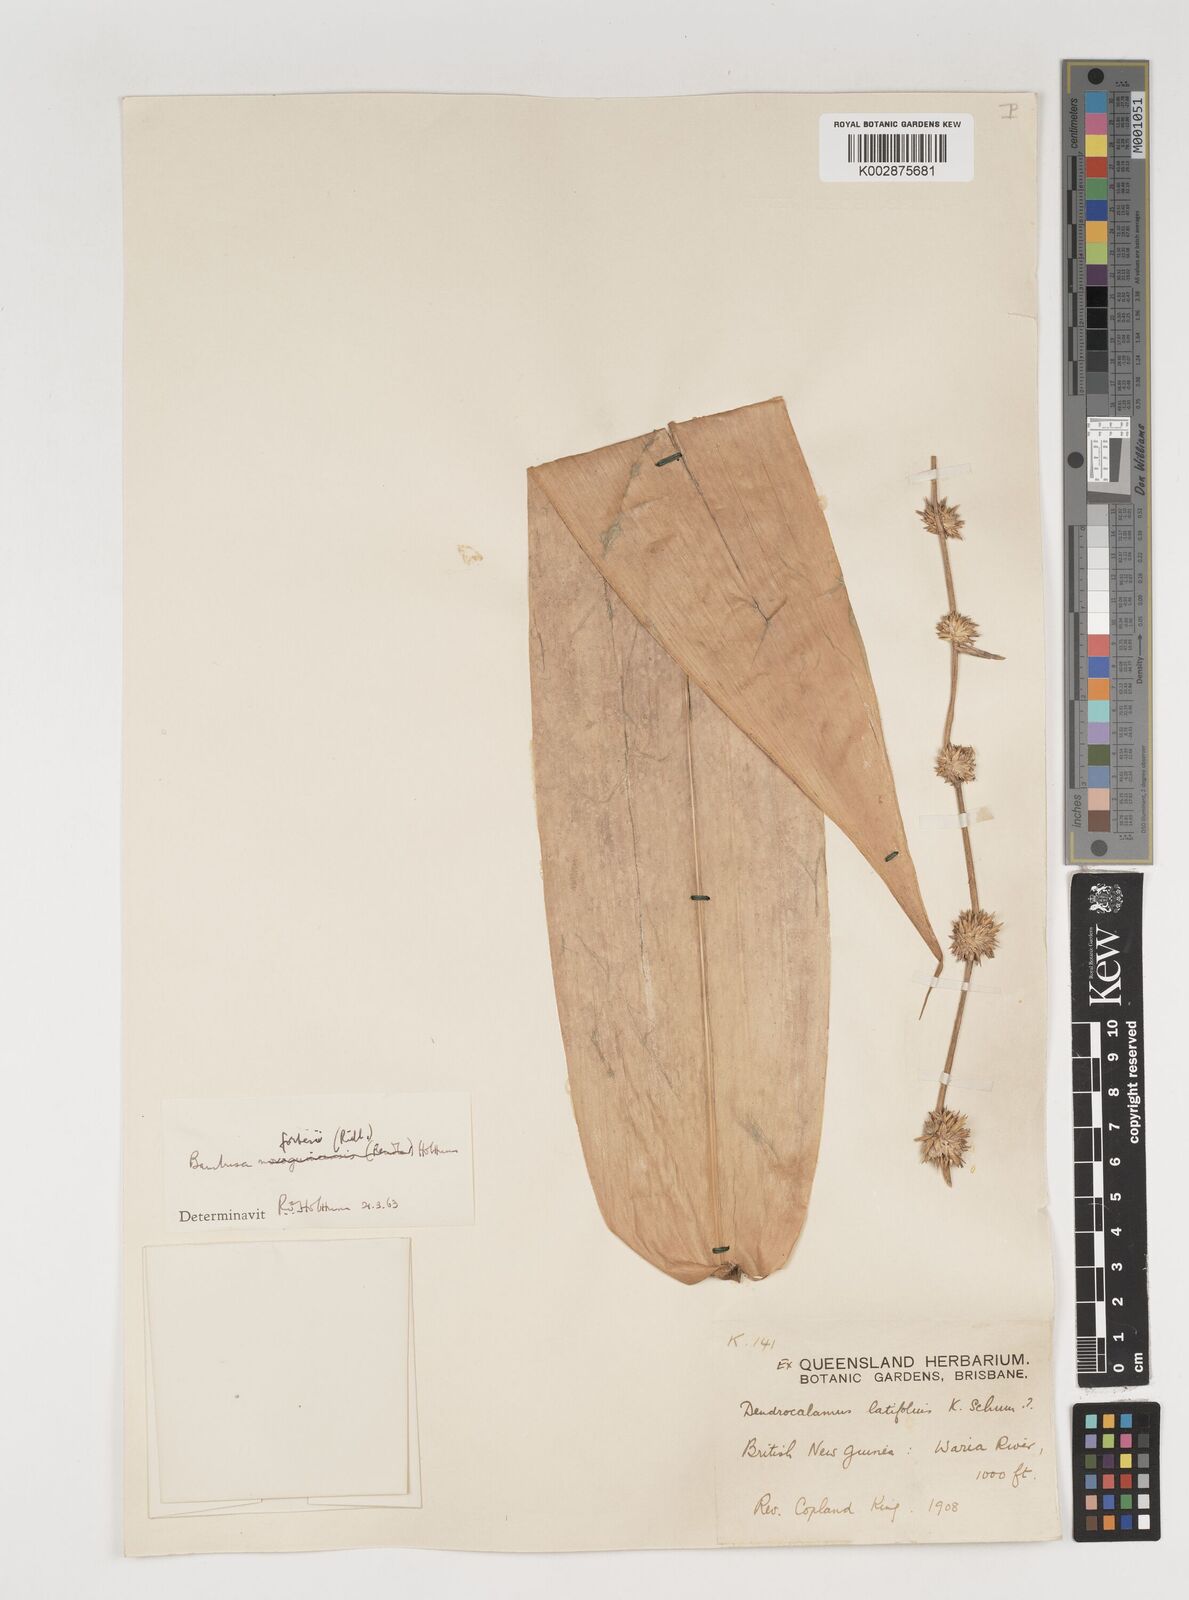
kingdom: Plantae
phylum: Tracheophyta
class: Liliopsida
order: Poales
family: Poaceae
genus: Neololeba
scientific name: Neololeba atra
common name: Cape bamboo
